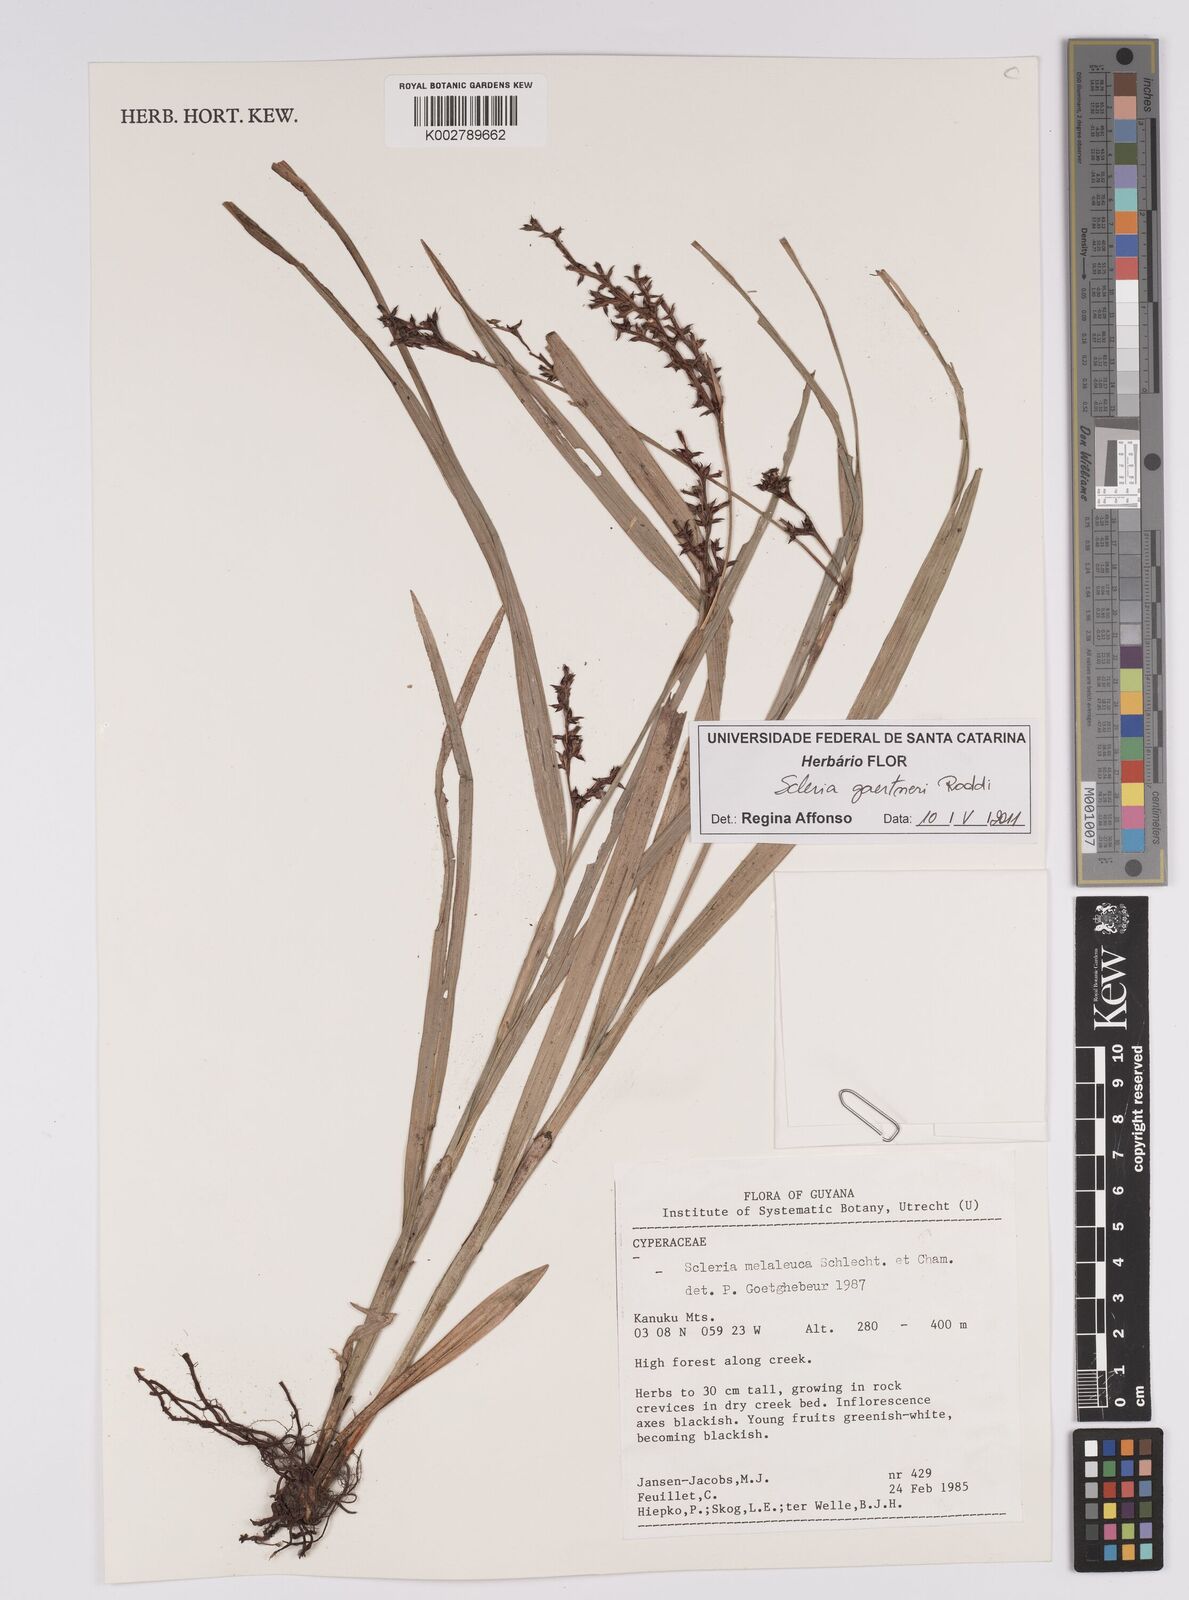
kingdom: Plantae
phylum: Tracheophyta
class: Liliopsida
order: Poales
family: Cyperaceae
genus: Scleria
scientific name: Scleria gaertneri
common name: Cortadera blanca
